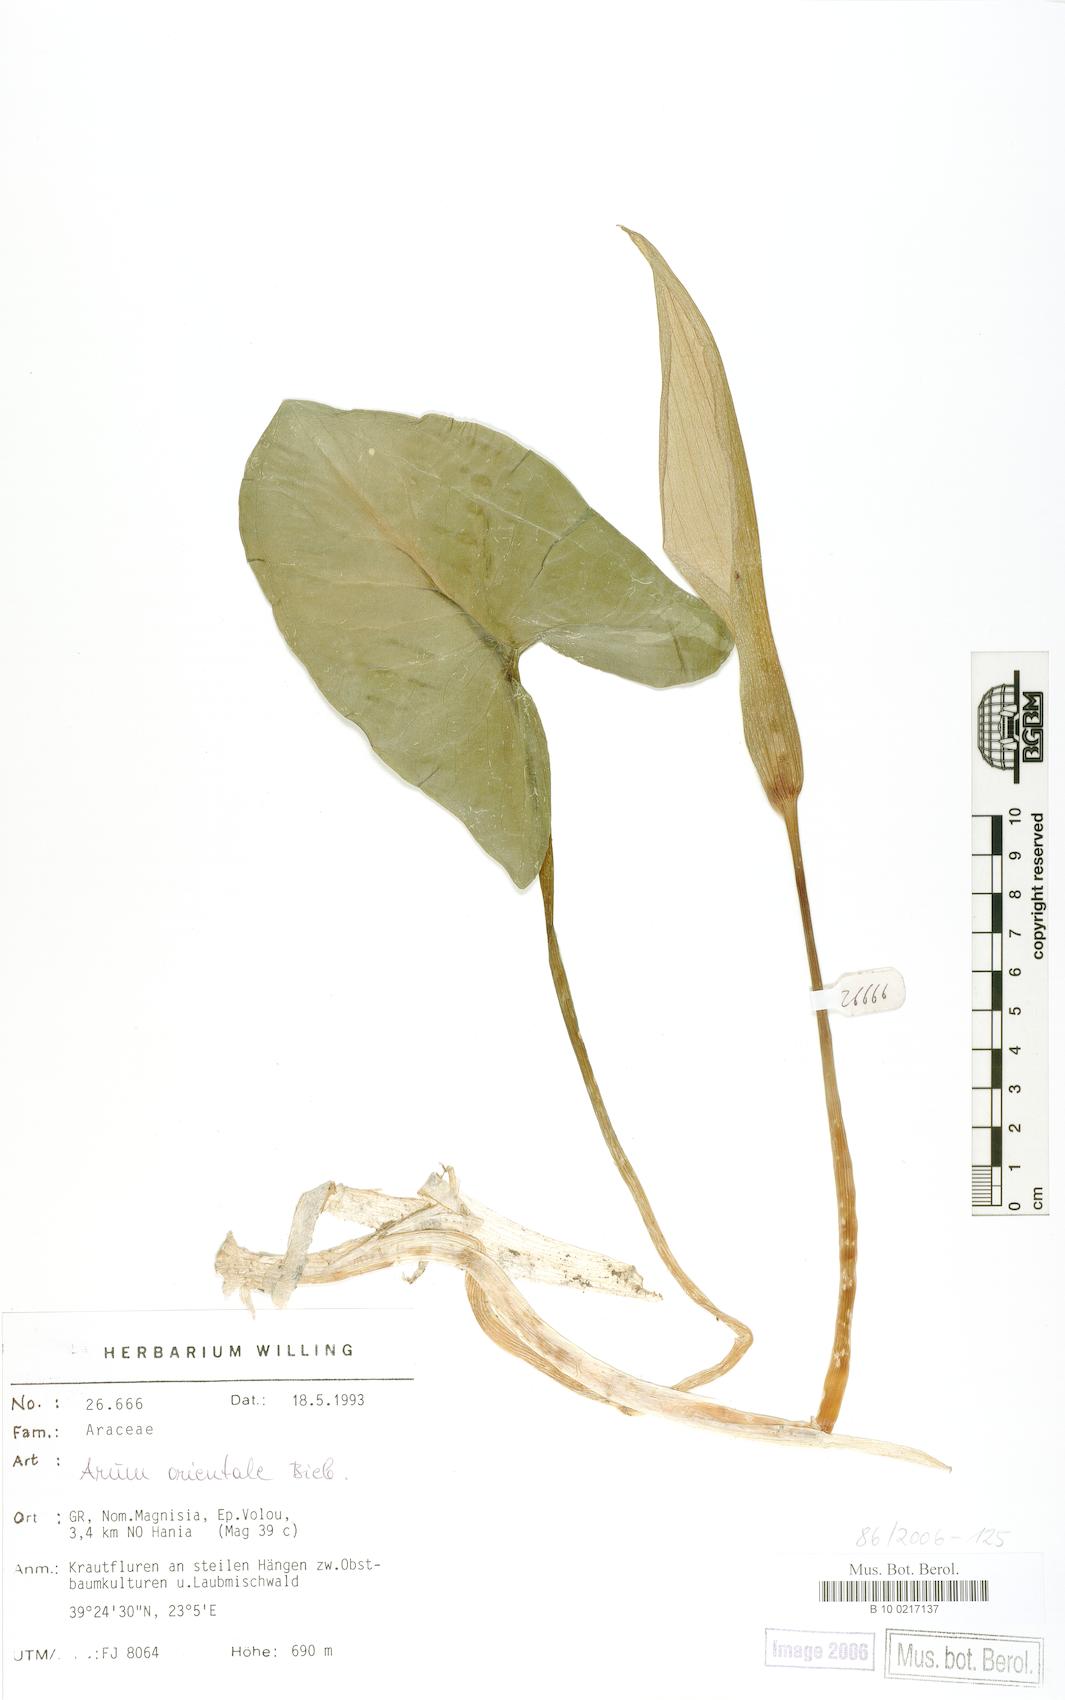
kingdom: Plantae
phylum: Tracheophyta
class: Liliopsida
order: Alismatales
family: Araceae
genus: Arum
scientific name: Arum orientale
